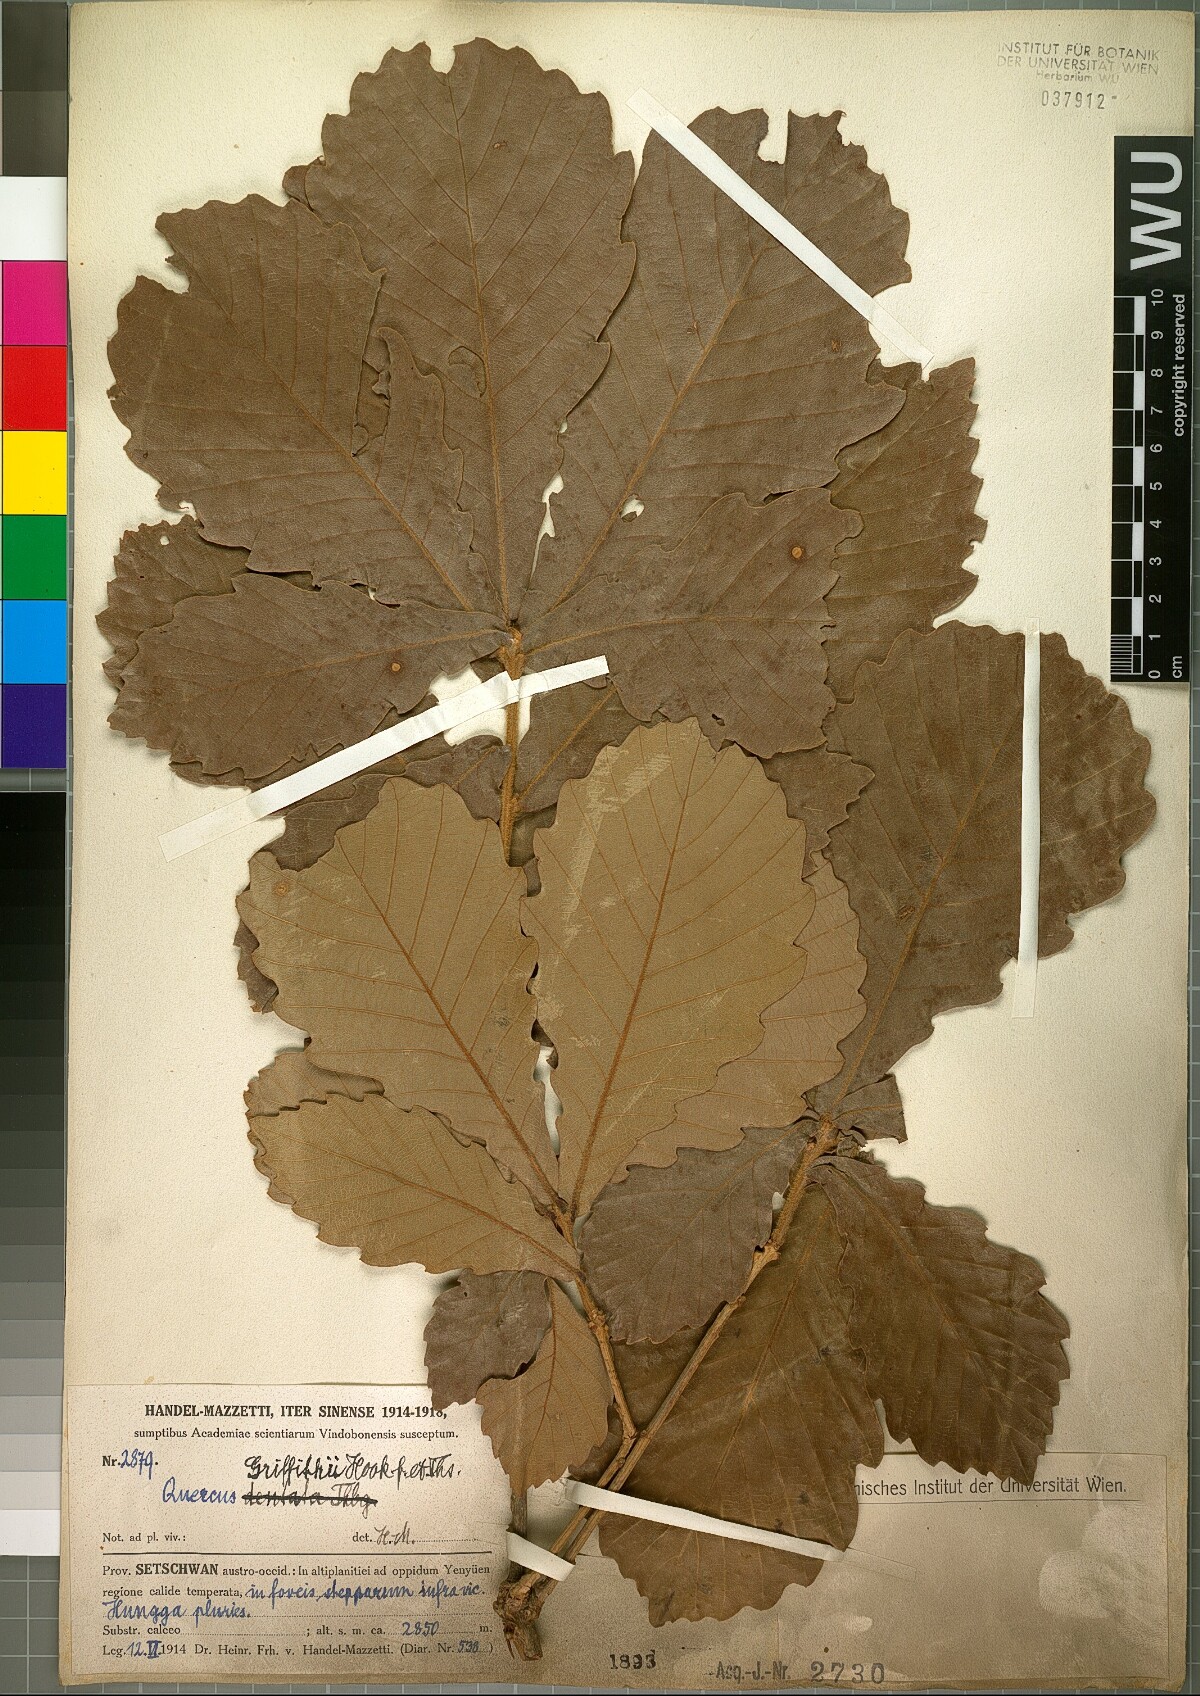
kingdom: Plantae
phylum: Tracheophyta
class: Magnoliopsida
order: Fagales
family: Fagaceae
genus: Quercus
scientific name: Quercus griffithii
